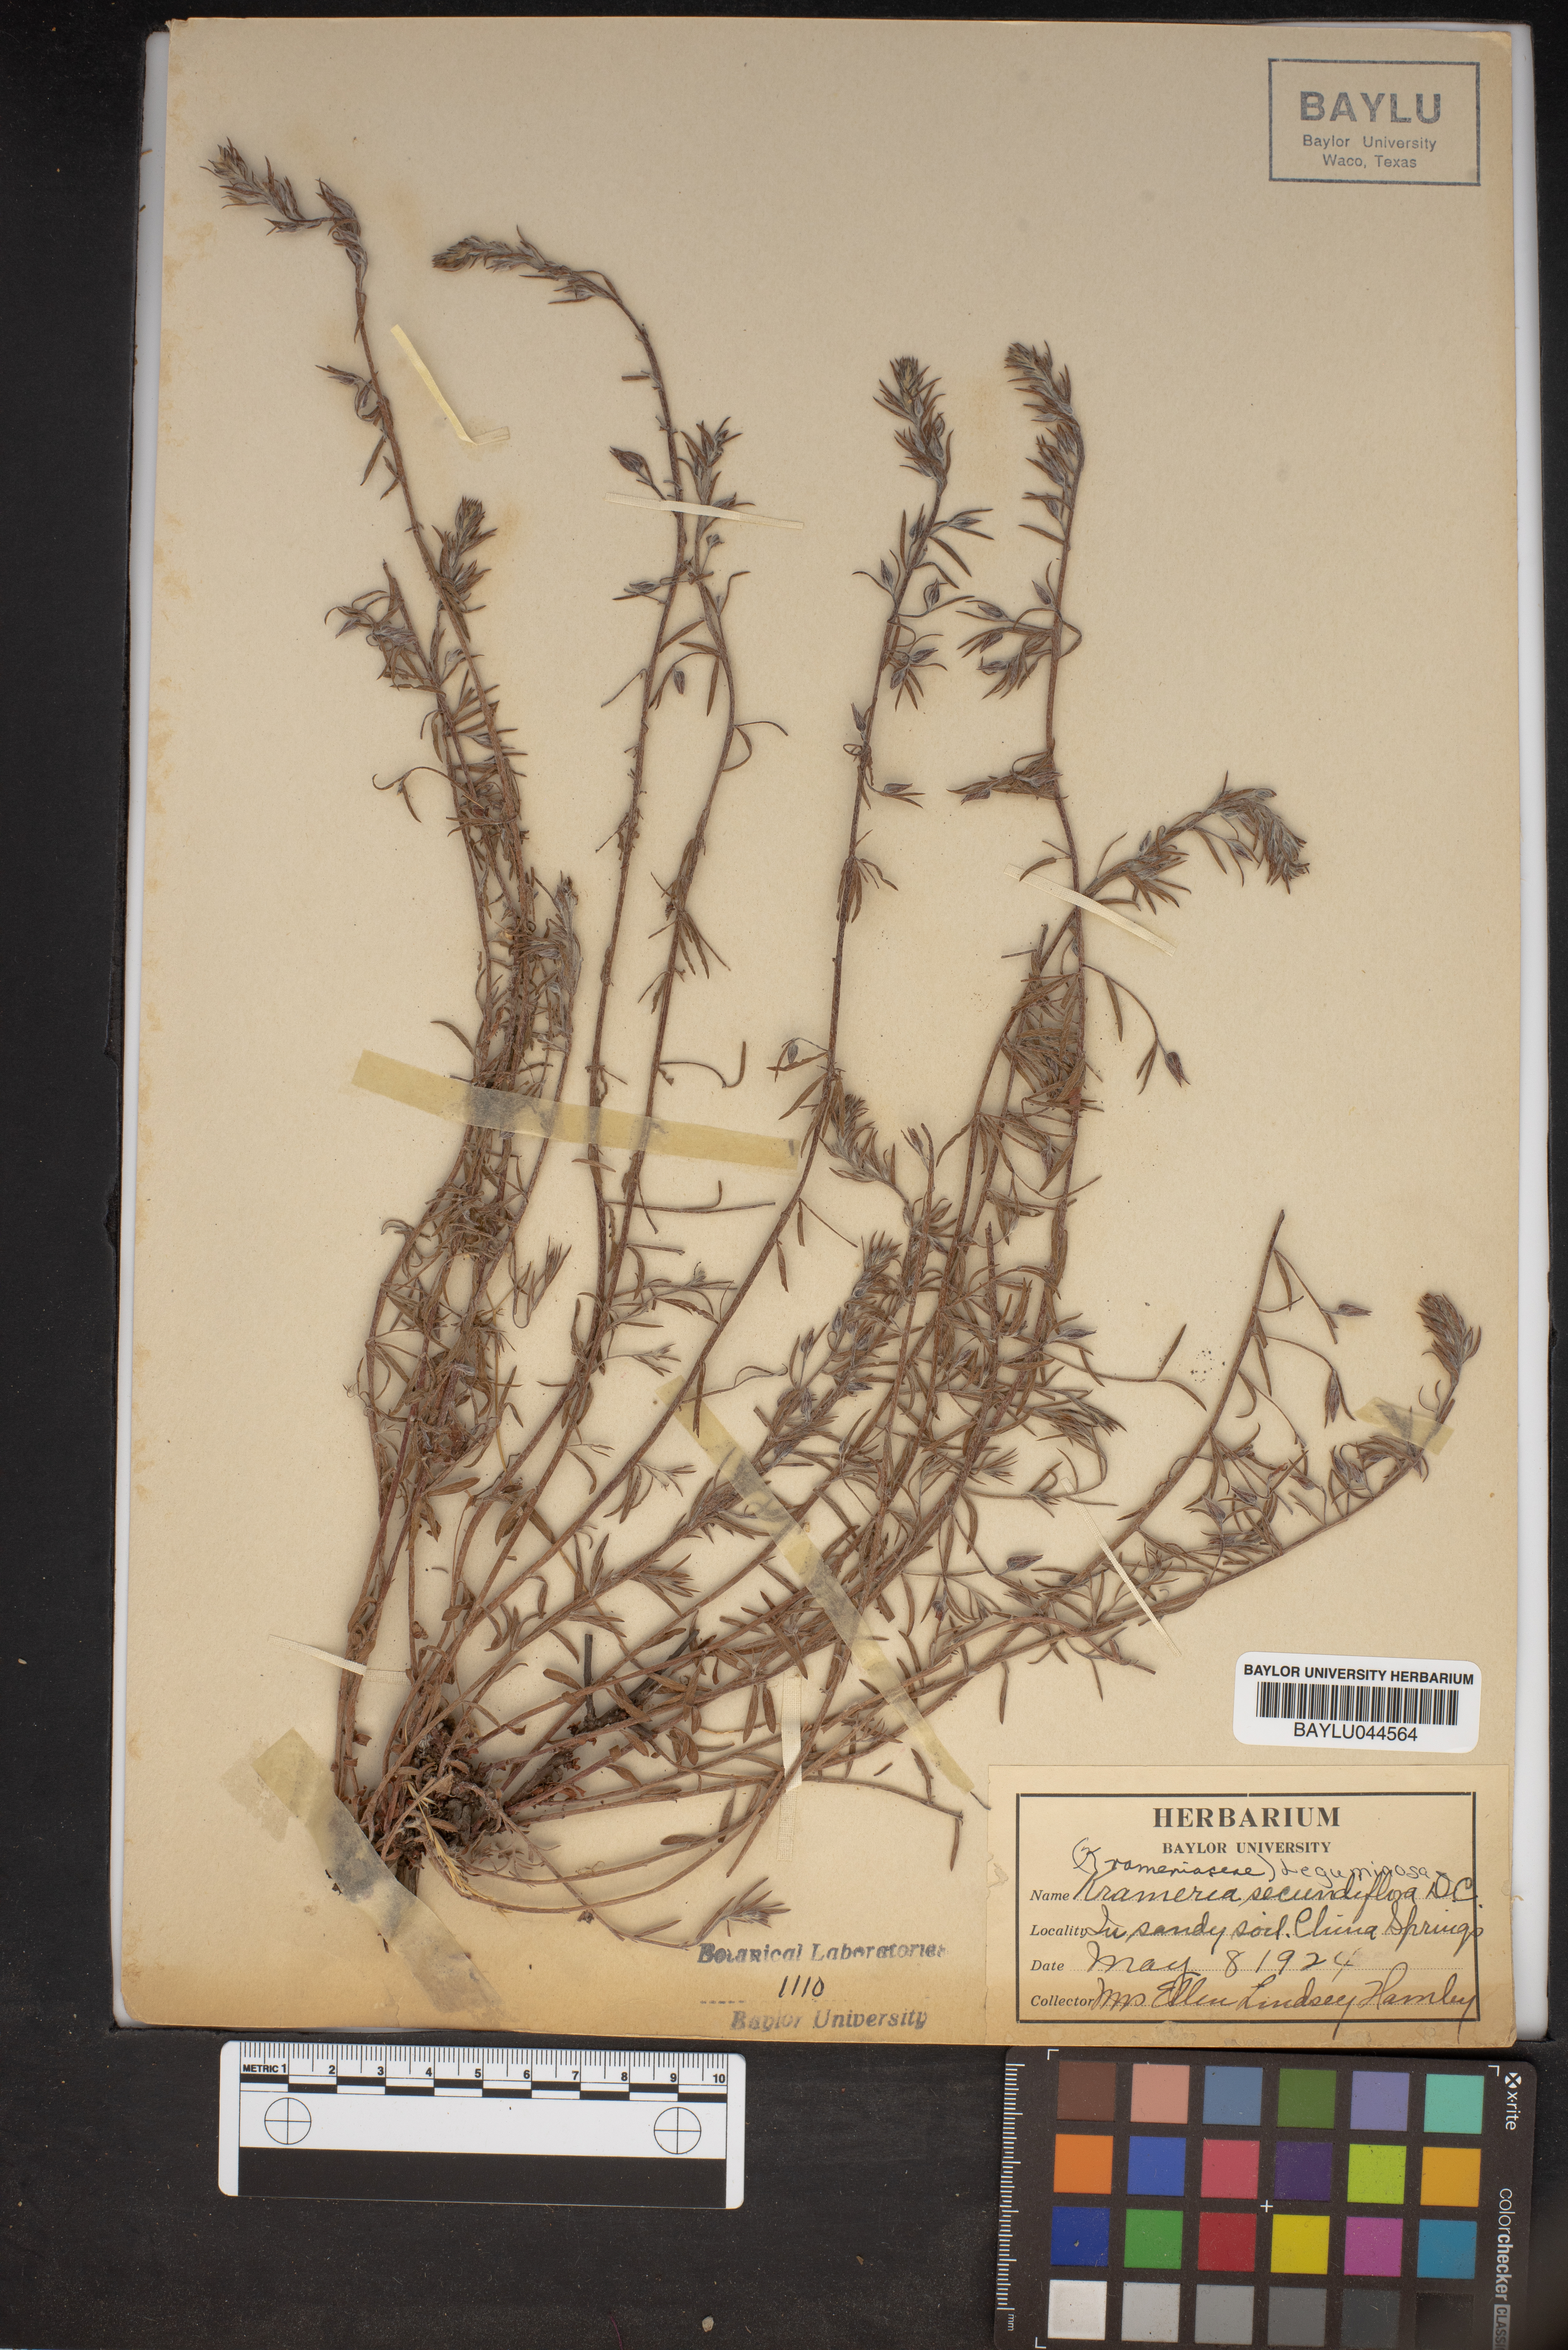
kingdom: Plantae
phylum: Tracheophyta
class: Magnoliopsida
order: Zygophyllales
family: Krameriaceae
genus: Krameria
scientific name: Krameria secundiflora
